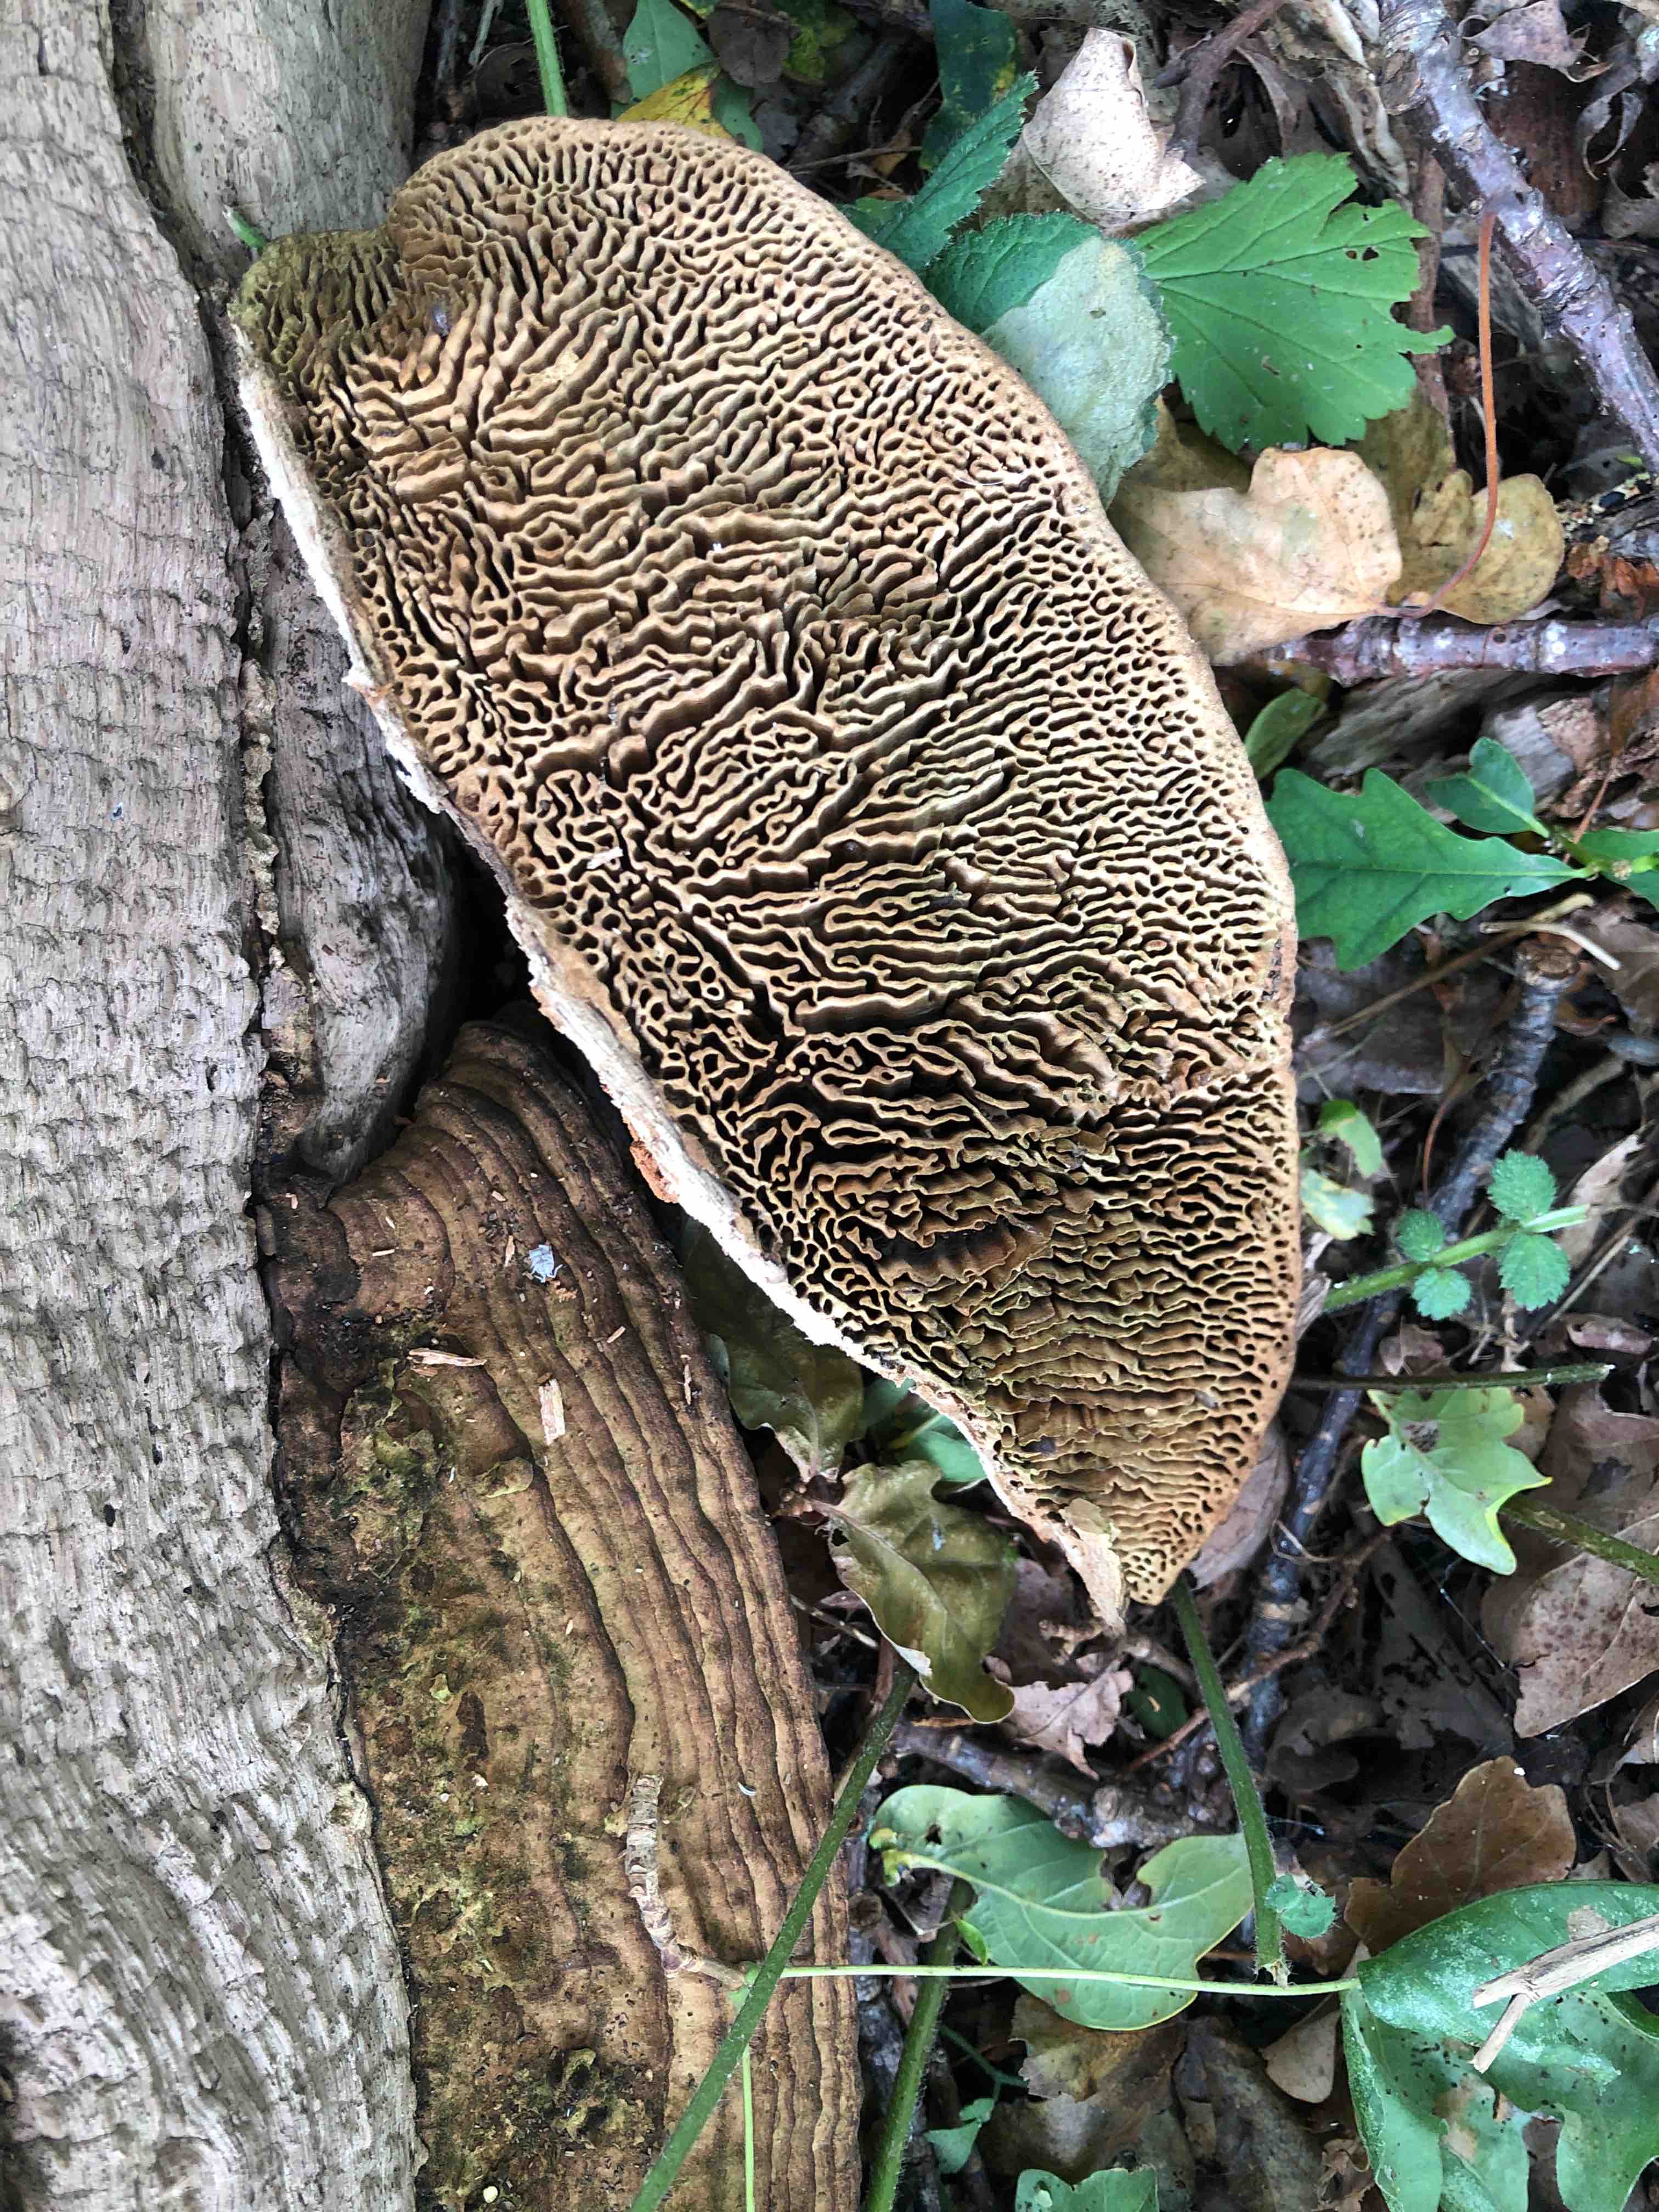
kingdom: Fungi
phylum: Basidiomycota
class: Agaricomycetes
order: Polyporales
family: Fomitopsidaceae
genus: Daedalea
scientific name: Daedalea quercina
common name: ege-labyrintsvamp
